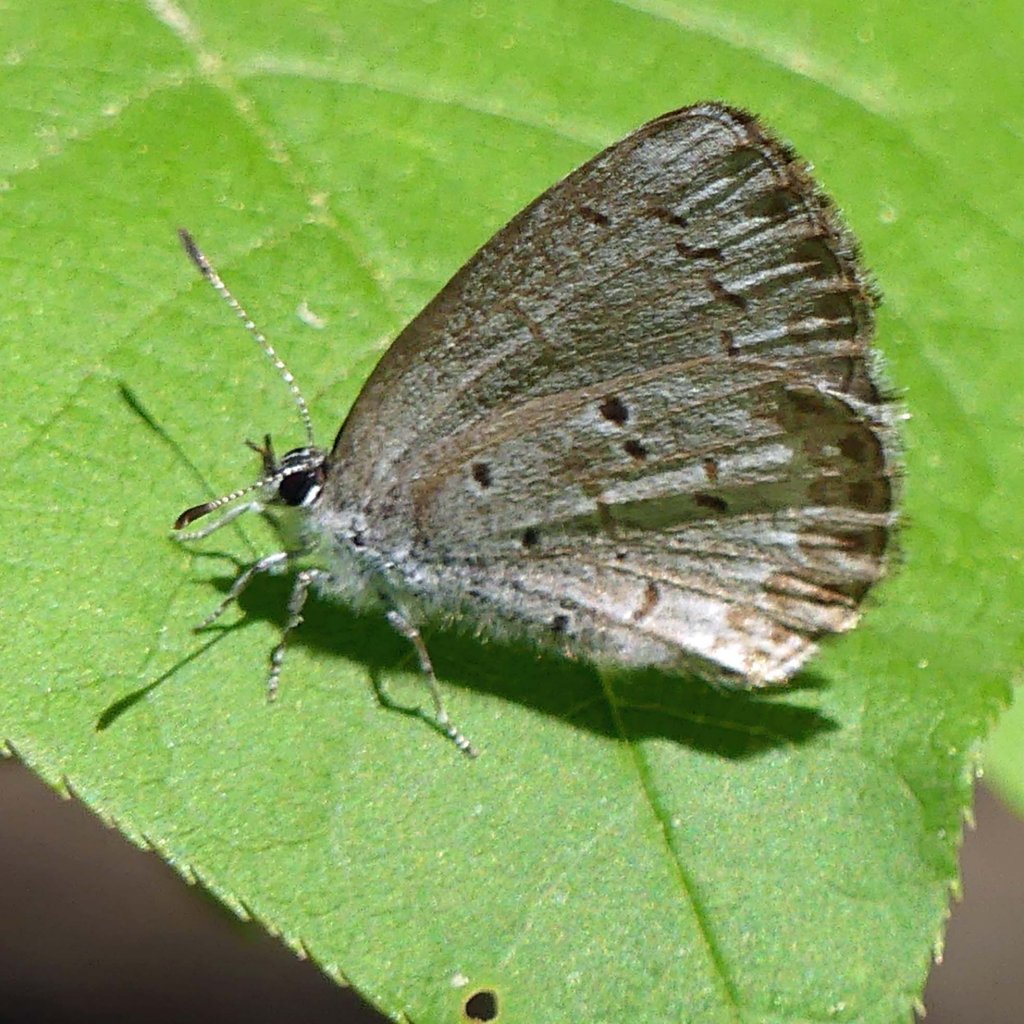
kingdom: Animalia
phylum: Arthropoda
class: Insecta
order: Lepidoptera
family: Lycaenidae
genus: Celastrina
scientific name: Celastrina
